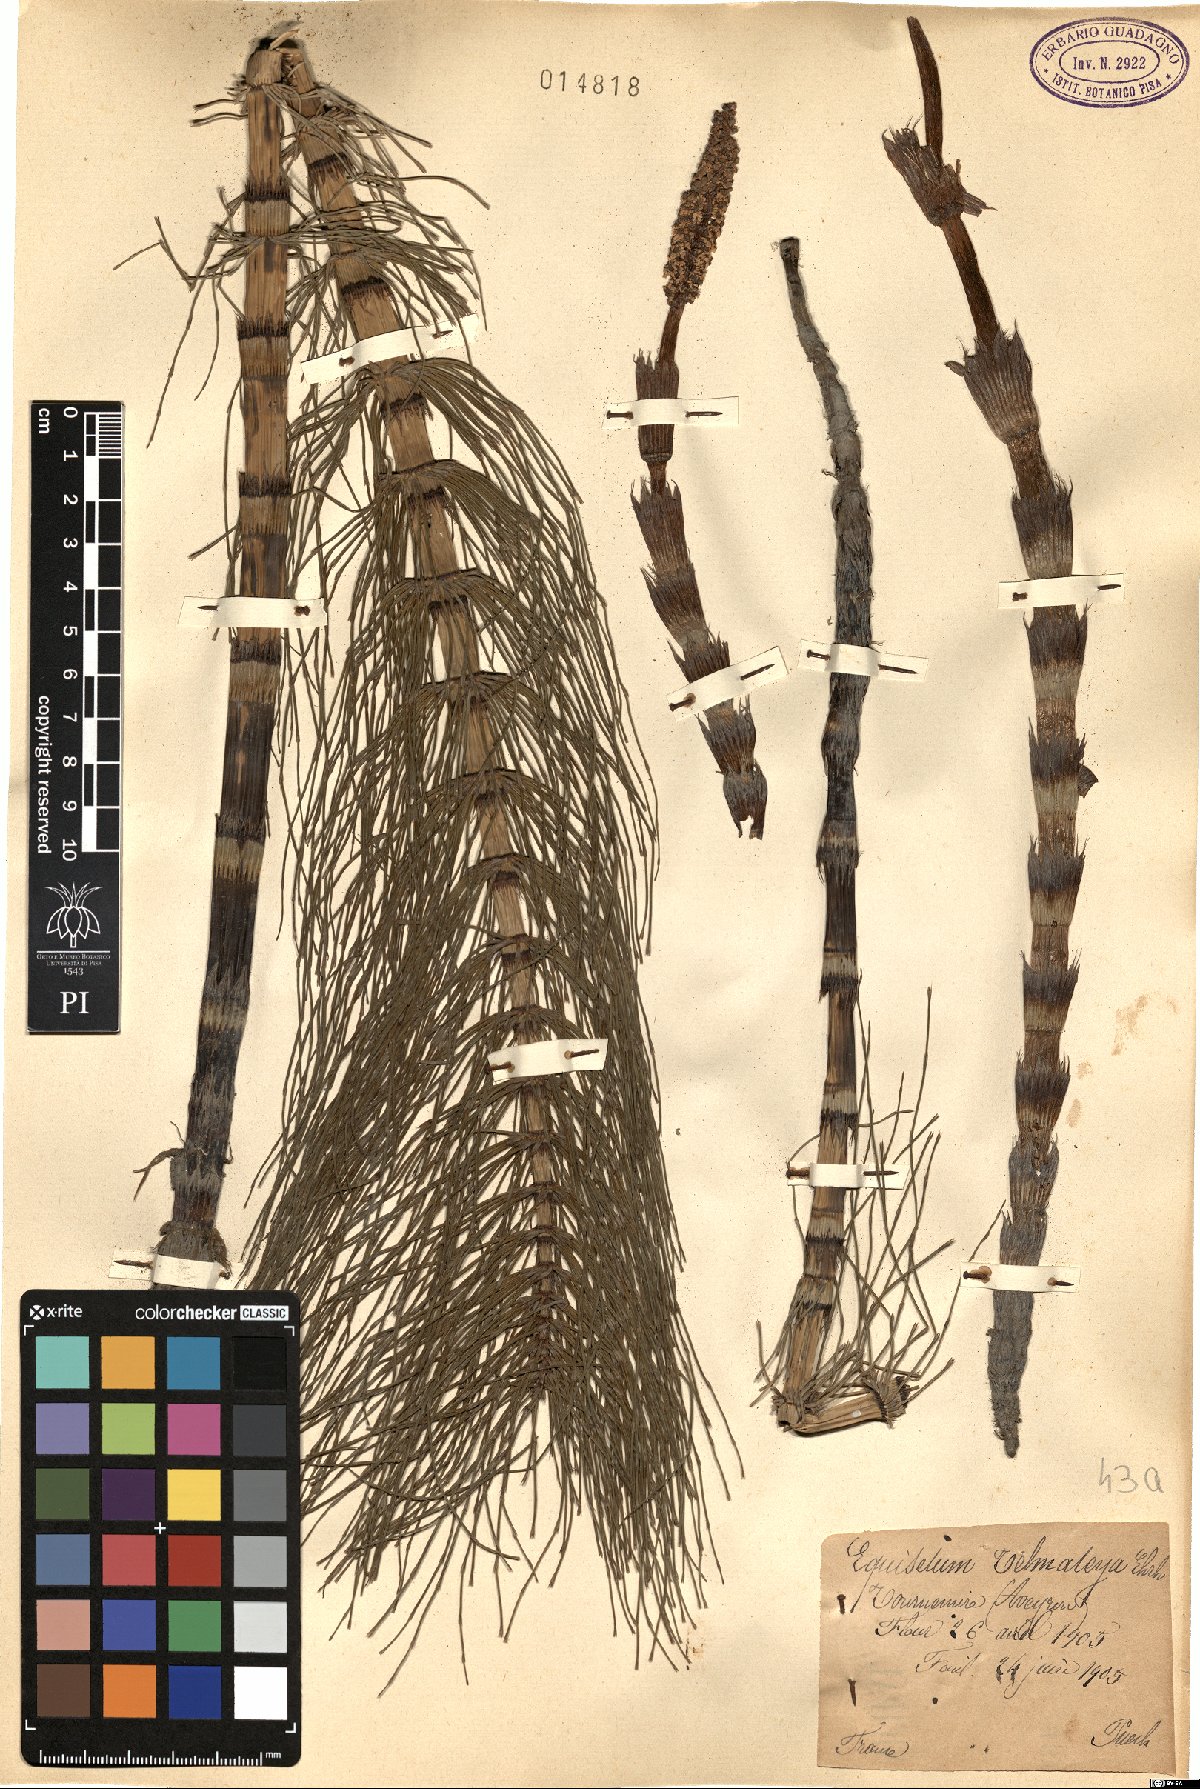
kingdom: Plantae
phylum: Tracheophyta
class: Polypodiopsida
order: Equisetales
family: Equisetaceae
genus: Equisetum
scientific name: Equisetum telmateia
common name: Great horsetail
